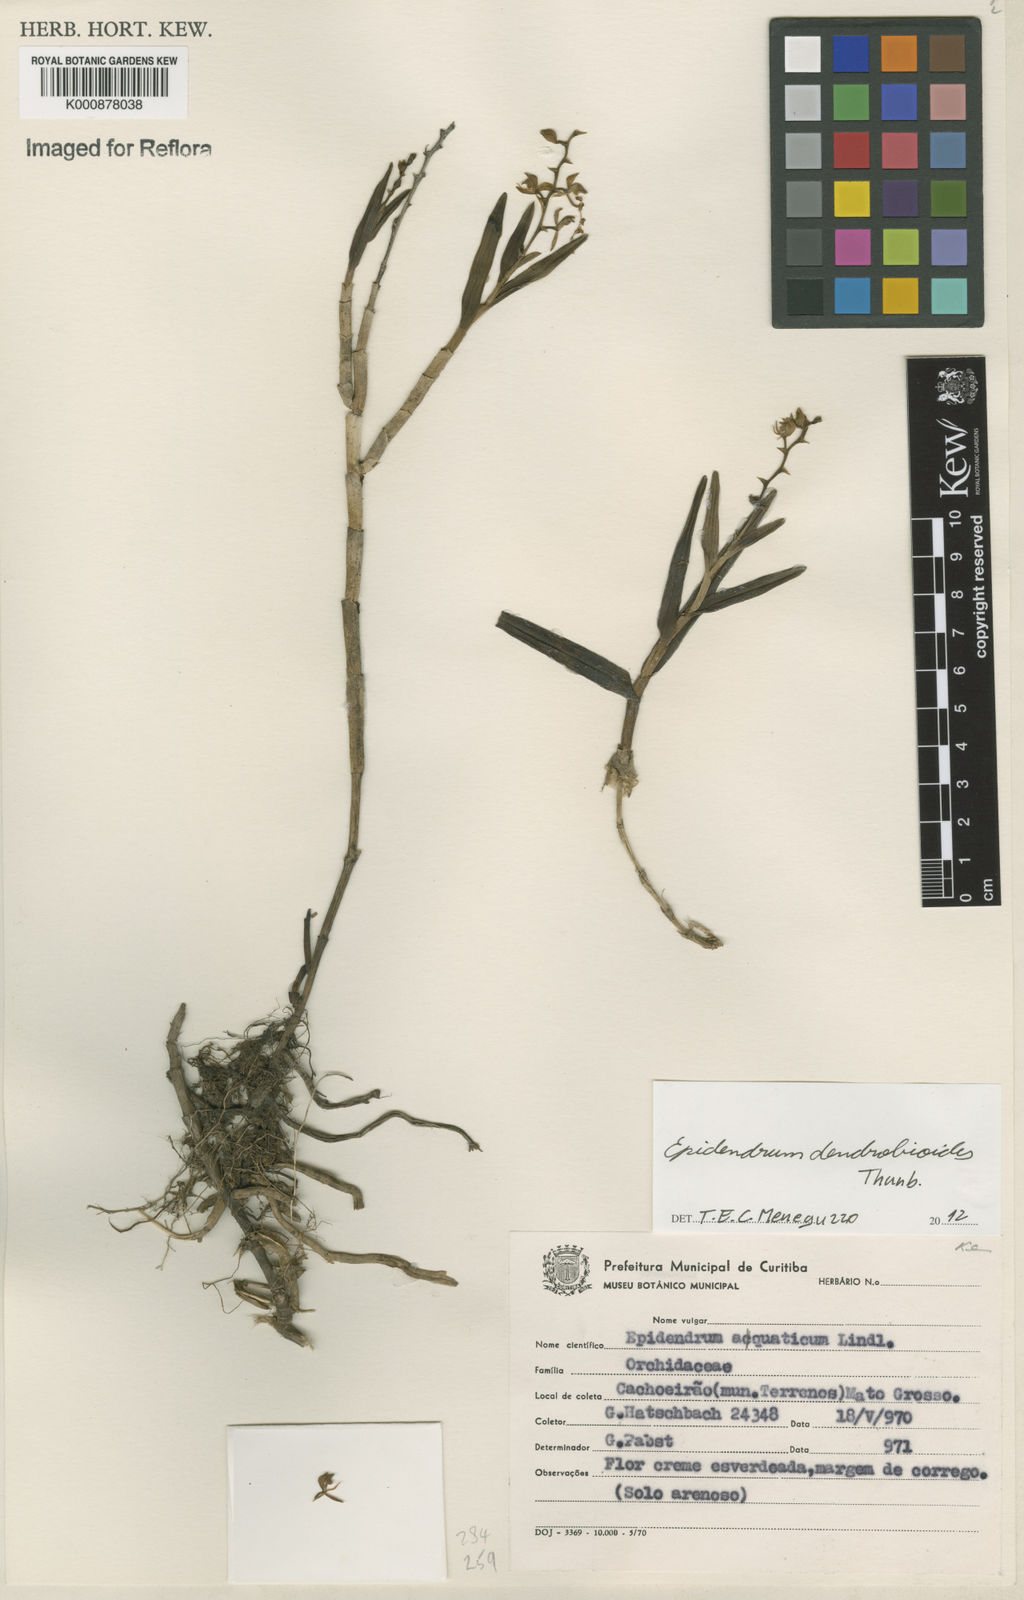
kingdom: Plantae
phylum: Tracheophyta
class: Liliopsida
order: Asparagales
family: Orchidaceae
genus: Epidendrum
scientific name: Epidendrum dendrobioides
